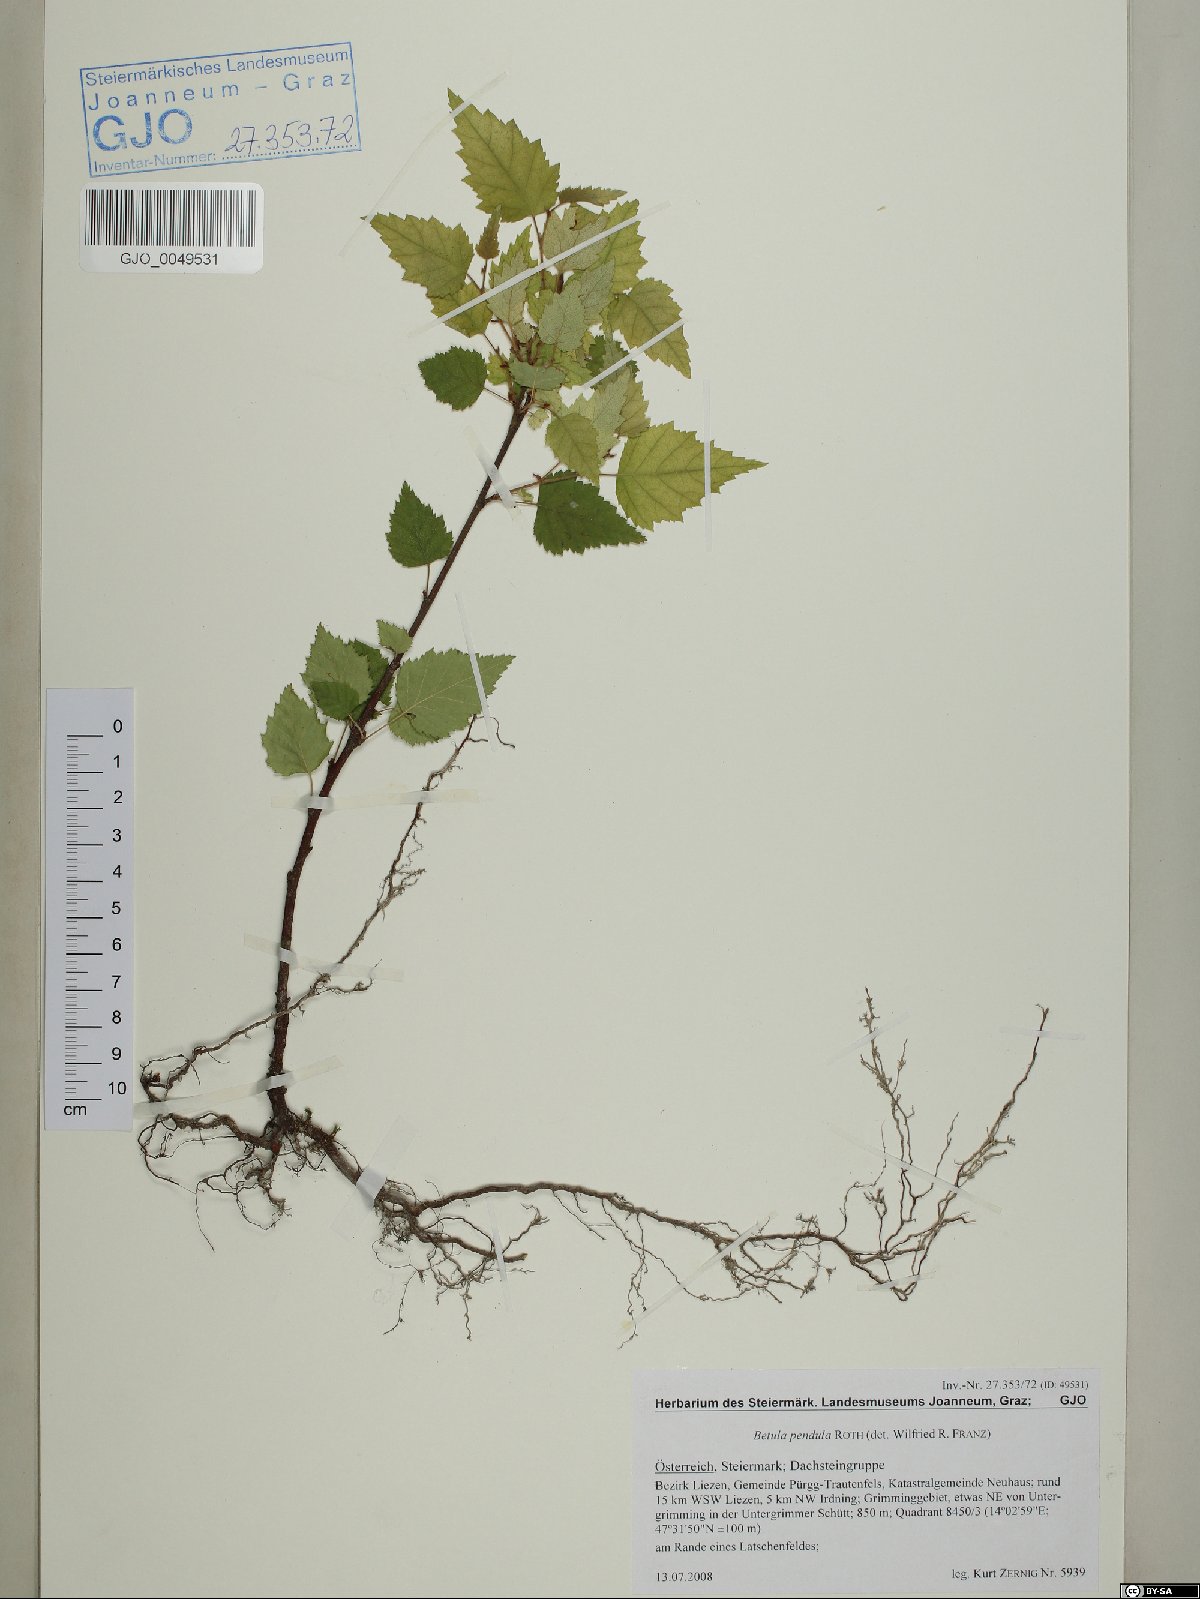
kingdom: Plantae
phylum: Tracheophyta
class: Magnoliopsida
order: Fagales
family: Betulaceae
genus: Betula
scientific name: Betula pendula
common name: Silver birch
